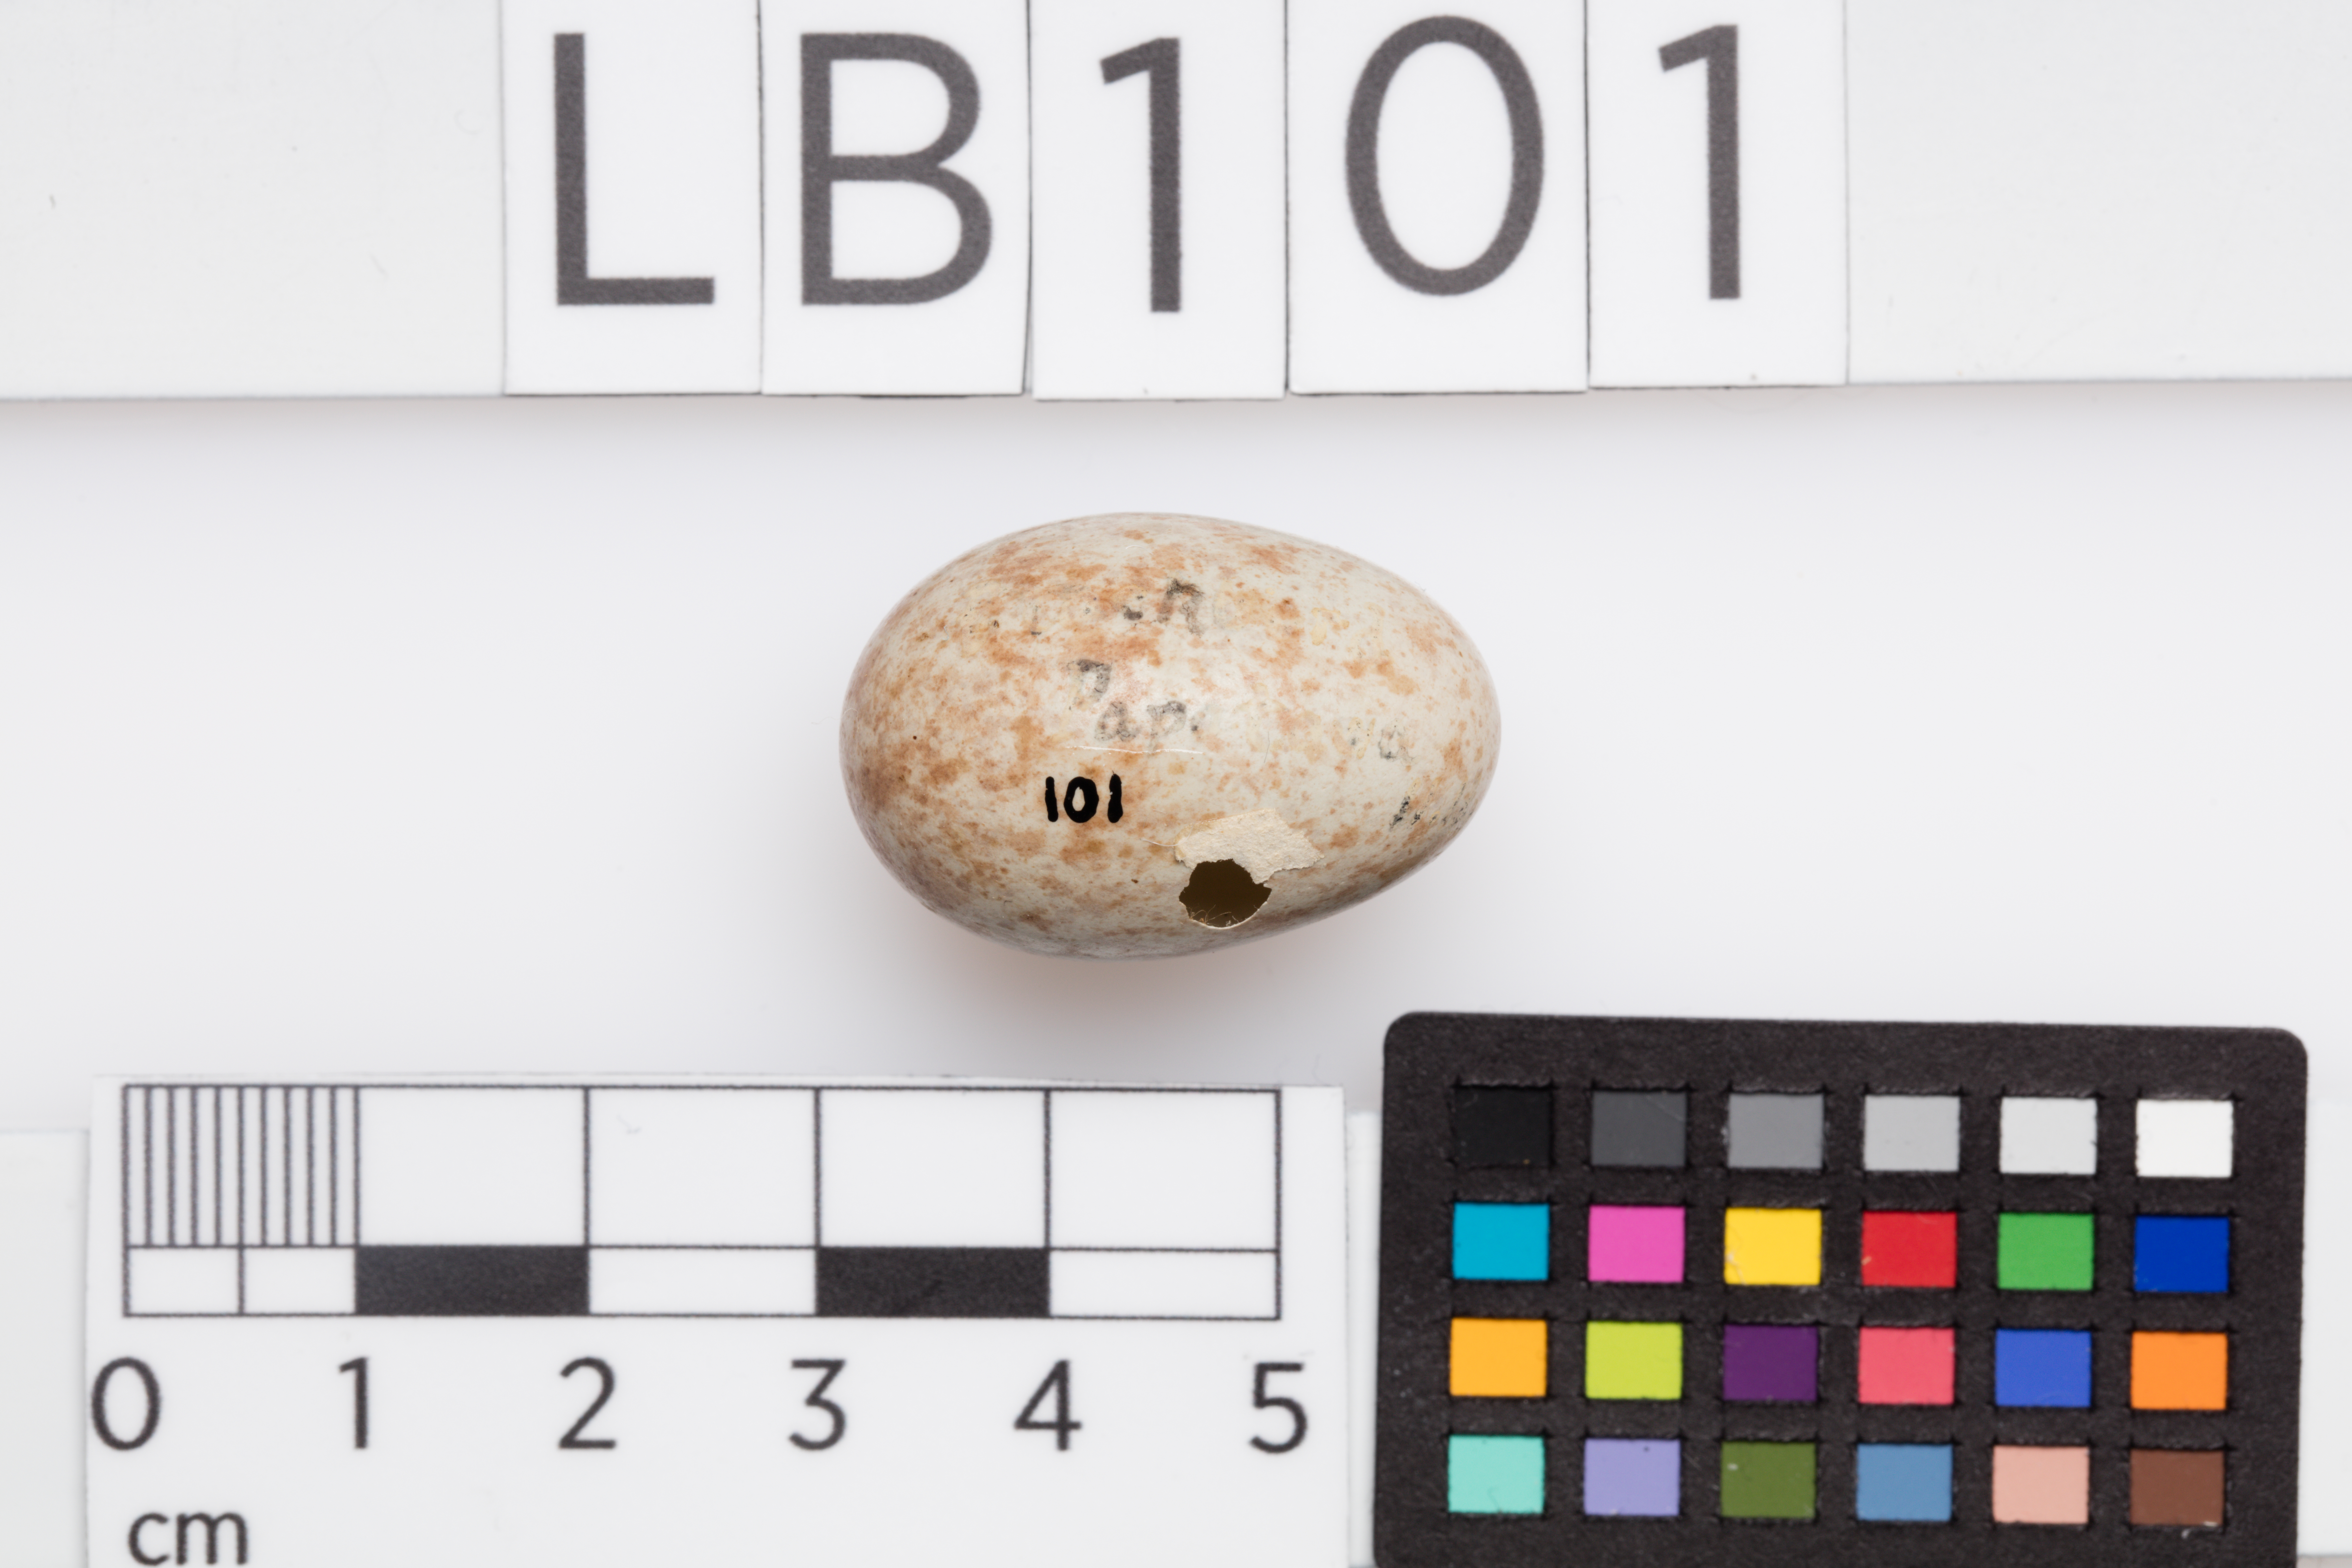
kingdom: Animalia
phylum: Chordata
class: Aves
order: Passeriformes
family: Turdidae
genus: Turdus
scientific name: Turdus merula
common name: Common blackbird
